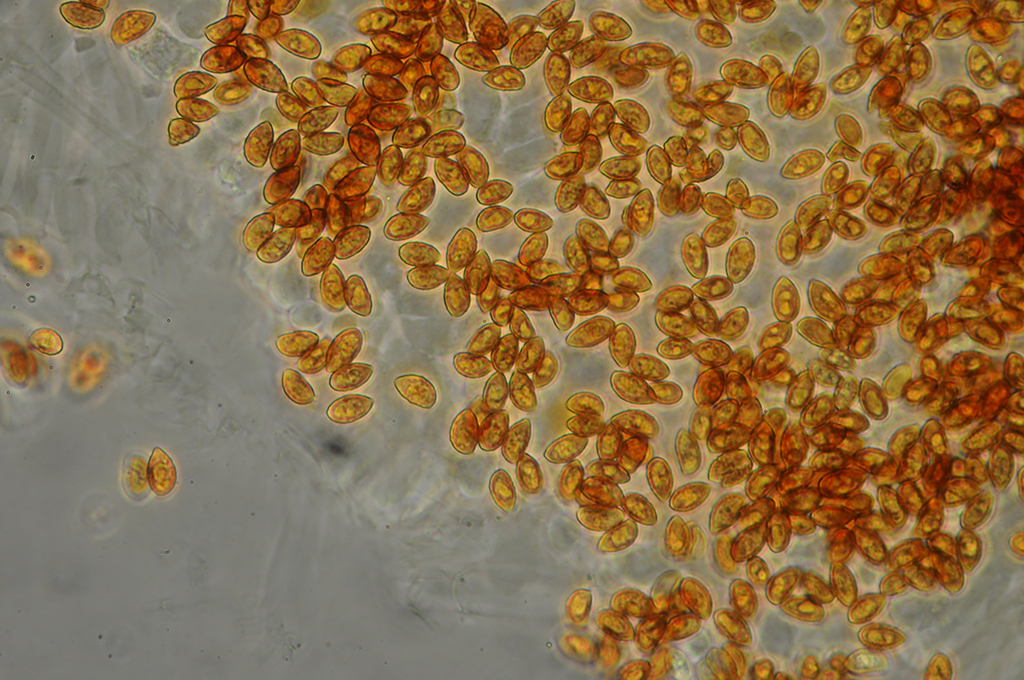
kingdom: Fungi
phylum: Basidiomycota
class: Agaricomycetes
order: Agaricales
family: Hymenogastraceae
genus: Galerina
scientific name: Galerina hybrida
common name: hængesæk-hjelmhat
